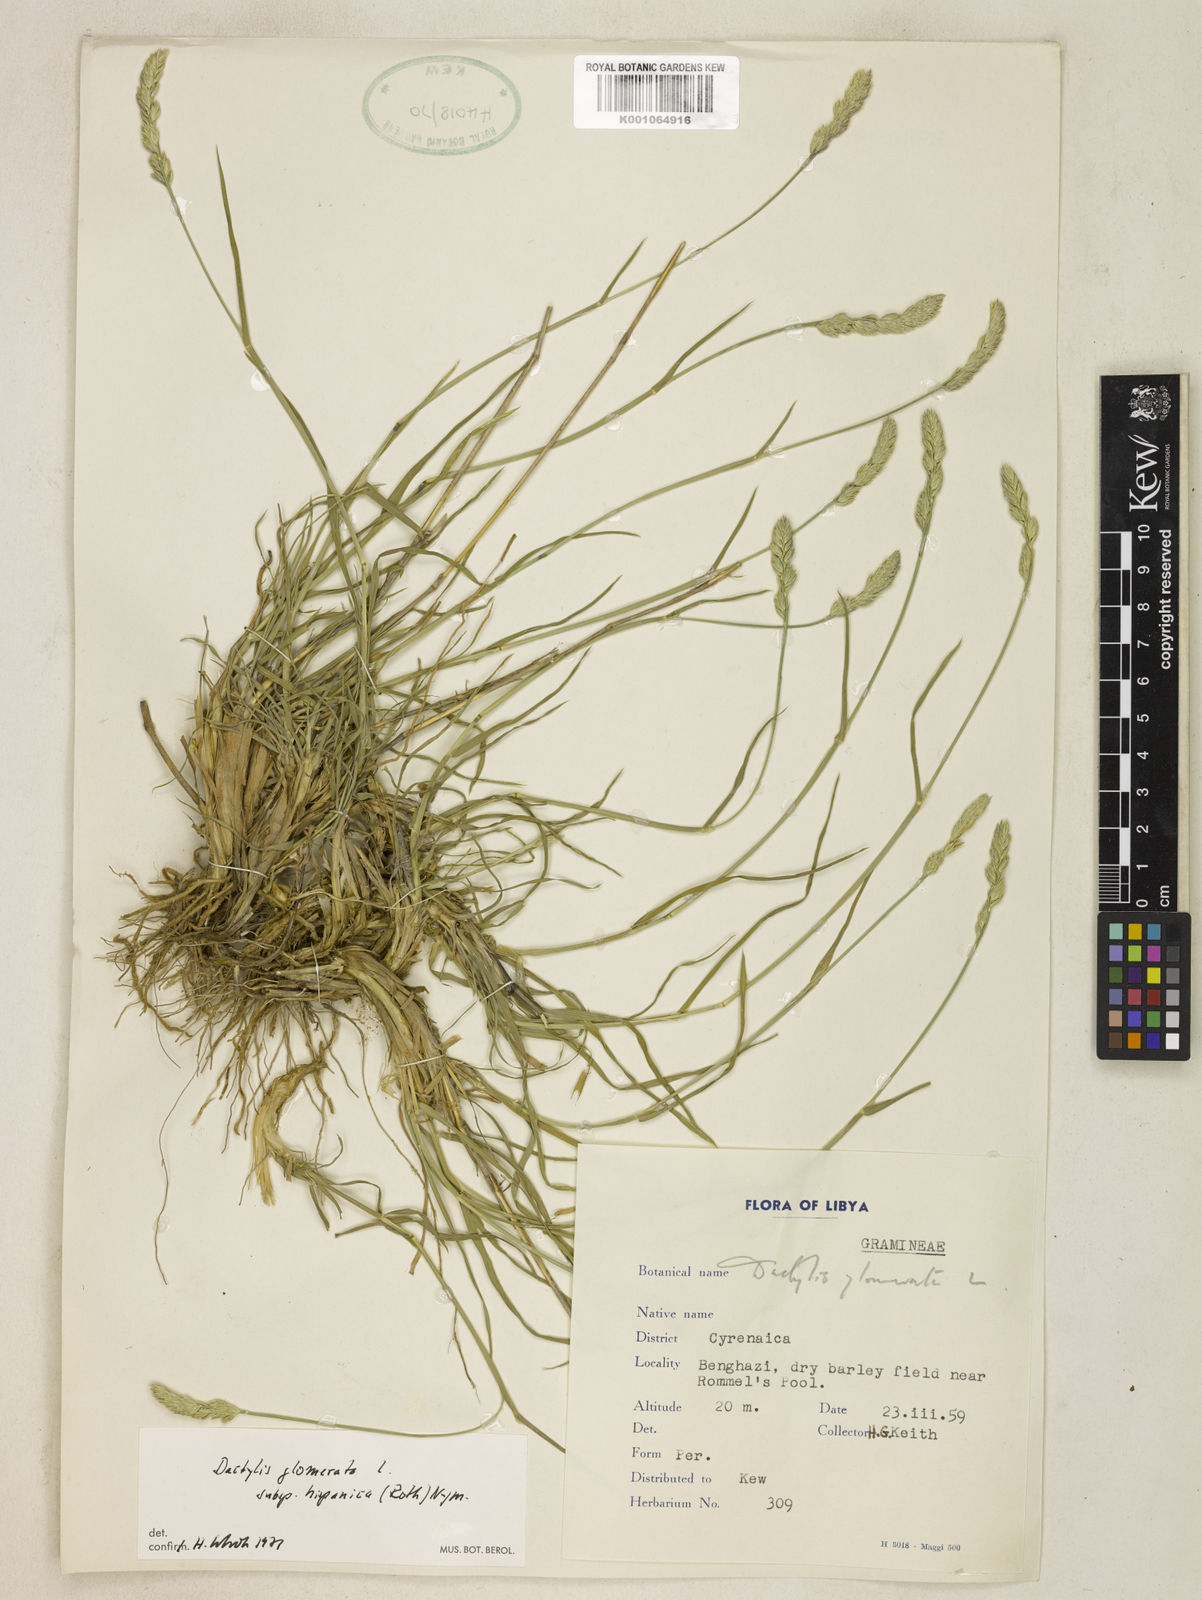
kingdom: Plantae
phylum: Tracheophyta
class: Liliopsida
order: Poales
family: Poaceae
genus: Dactylis
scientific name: Dactylis glomerata
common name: Orchardgrass
